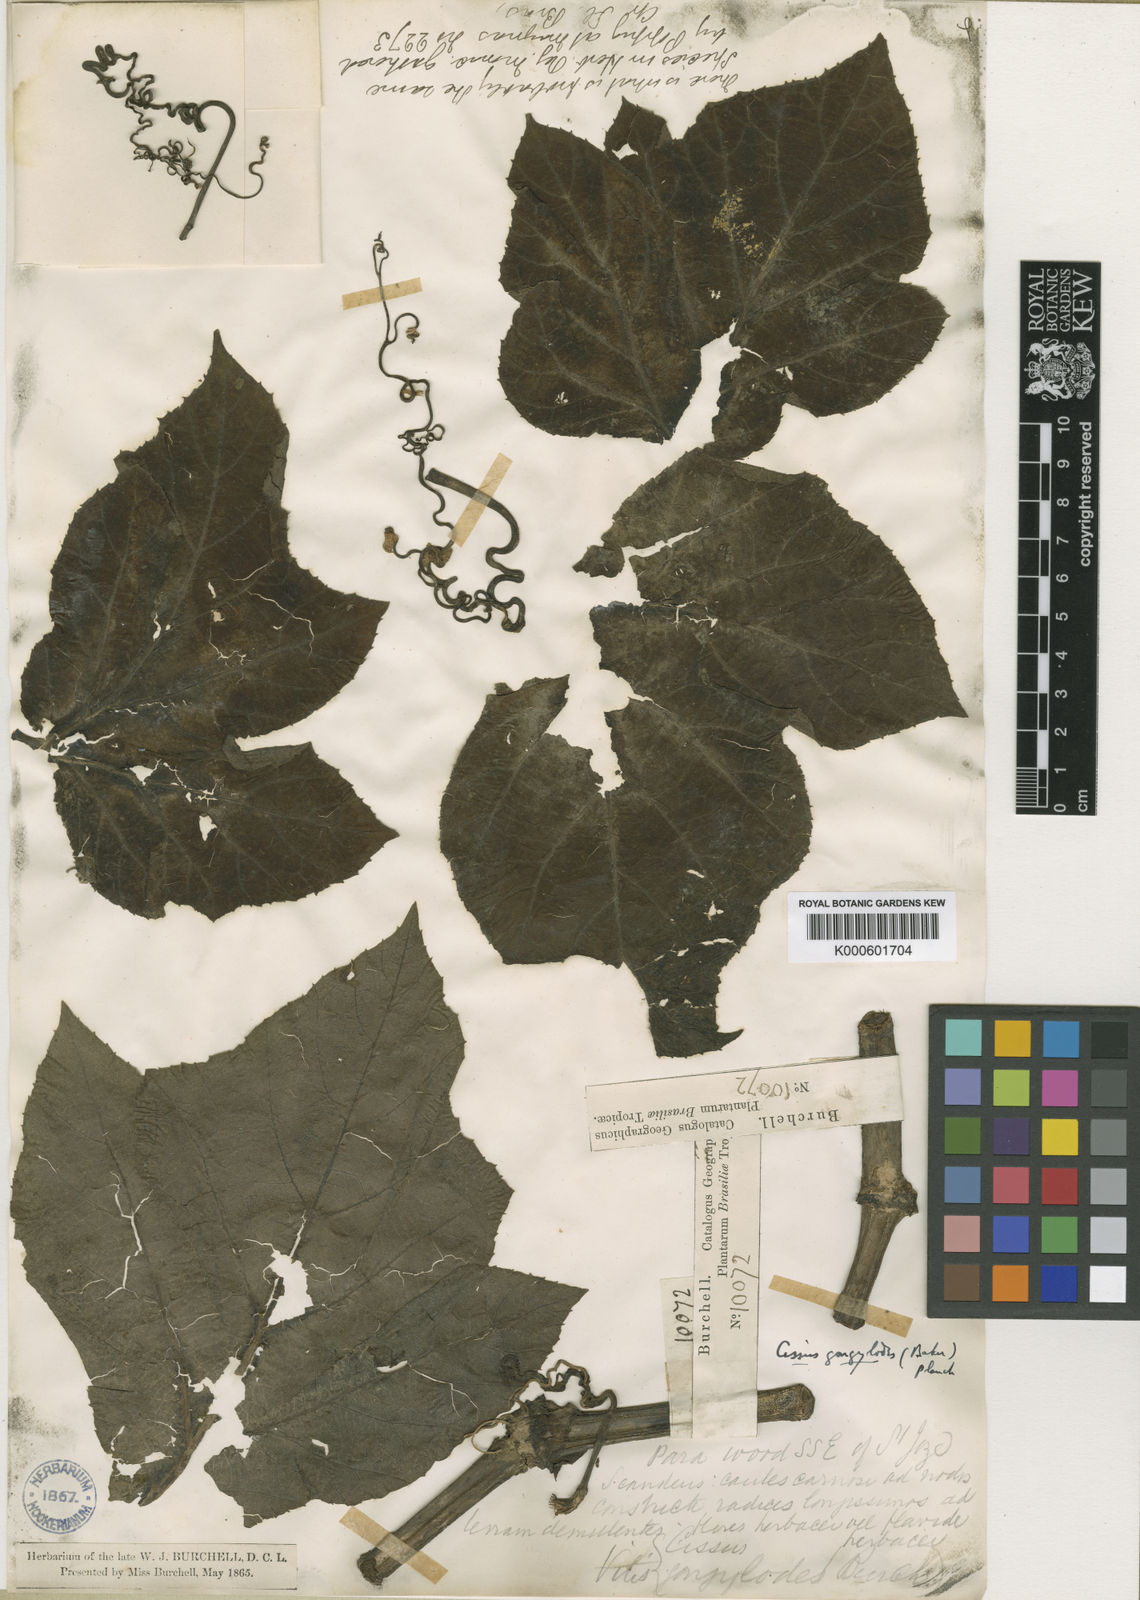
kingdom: Plantae
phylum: Tracheophyta
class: Magnoliopsida
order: Vitales
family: Vitaceae
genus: Cissus
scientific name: Cissus
